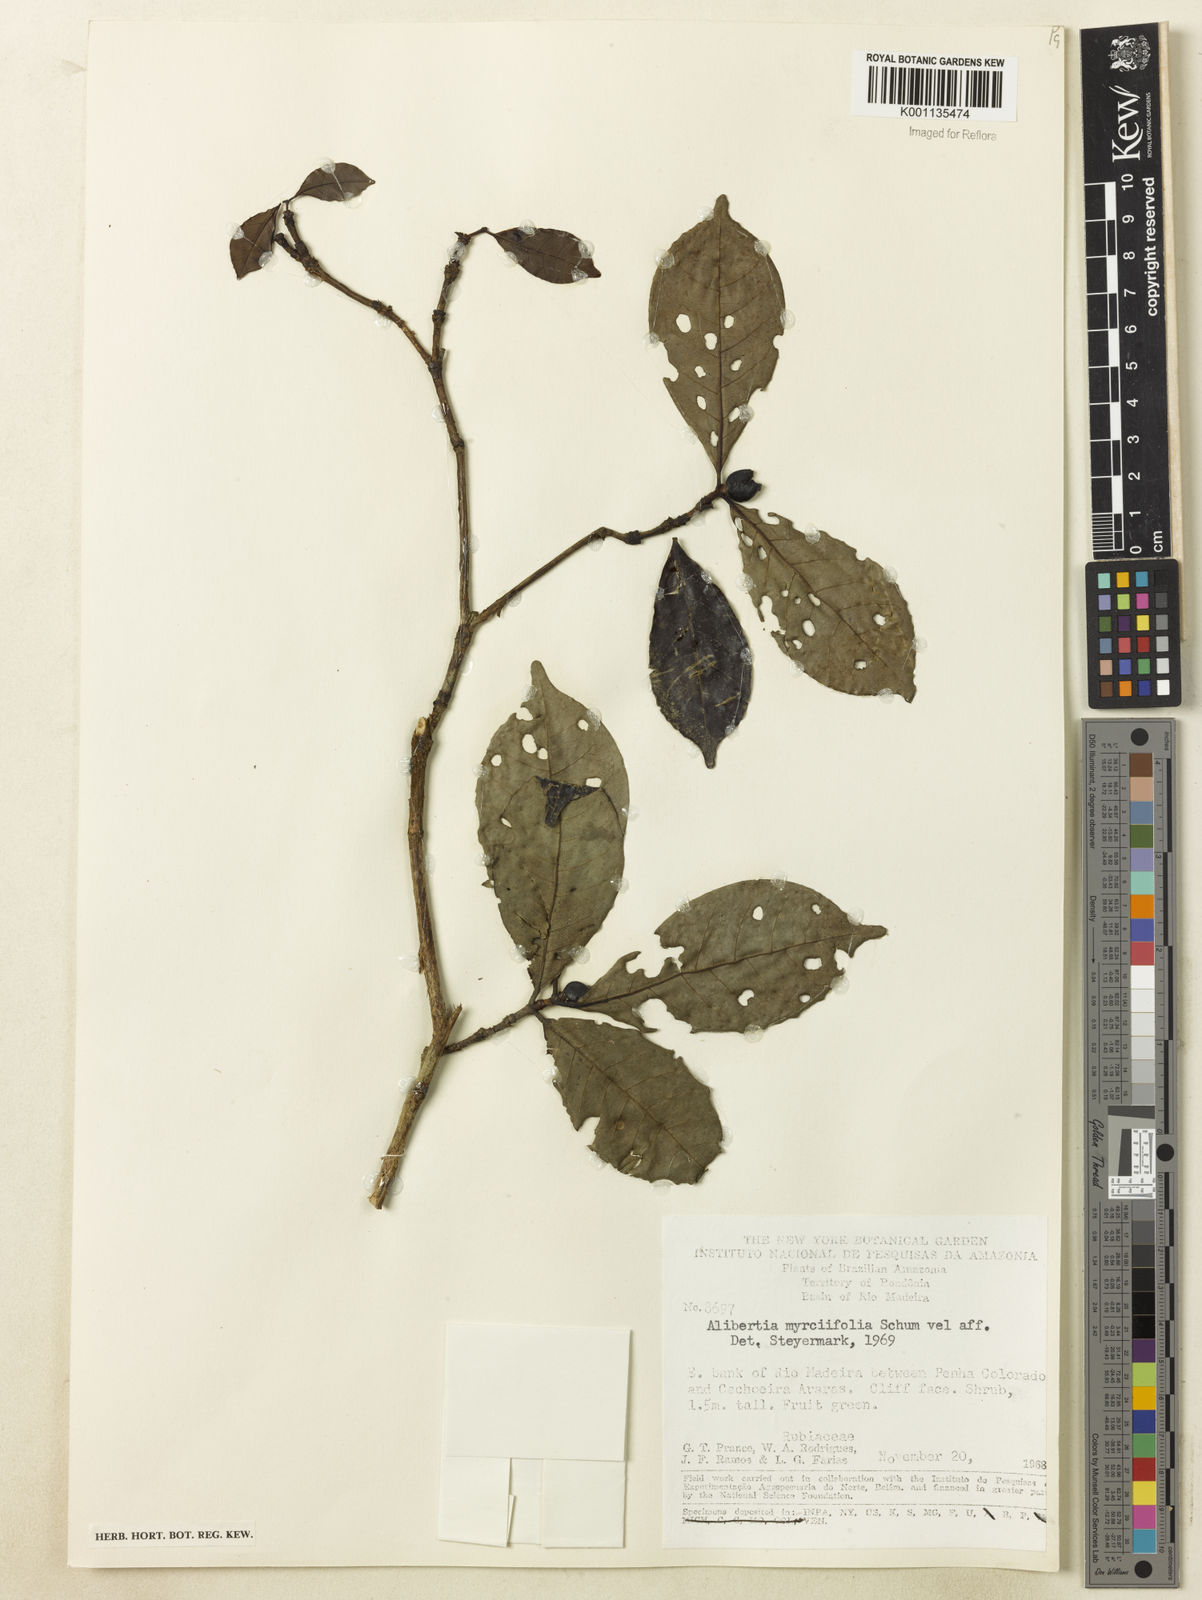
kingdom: Plantae
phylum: Tracheophyta
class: Magnoliopsida
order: Gentianales
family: Rubiaceae
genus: Cordiera
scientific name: Cordiera myrciifolia
